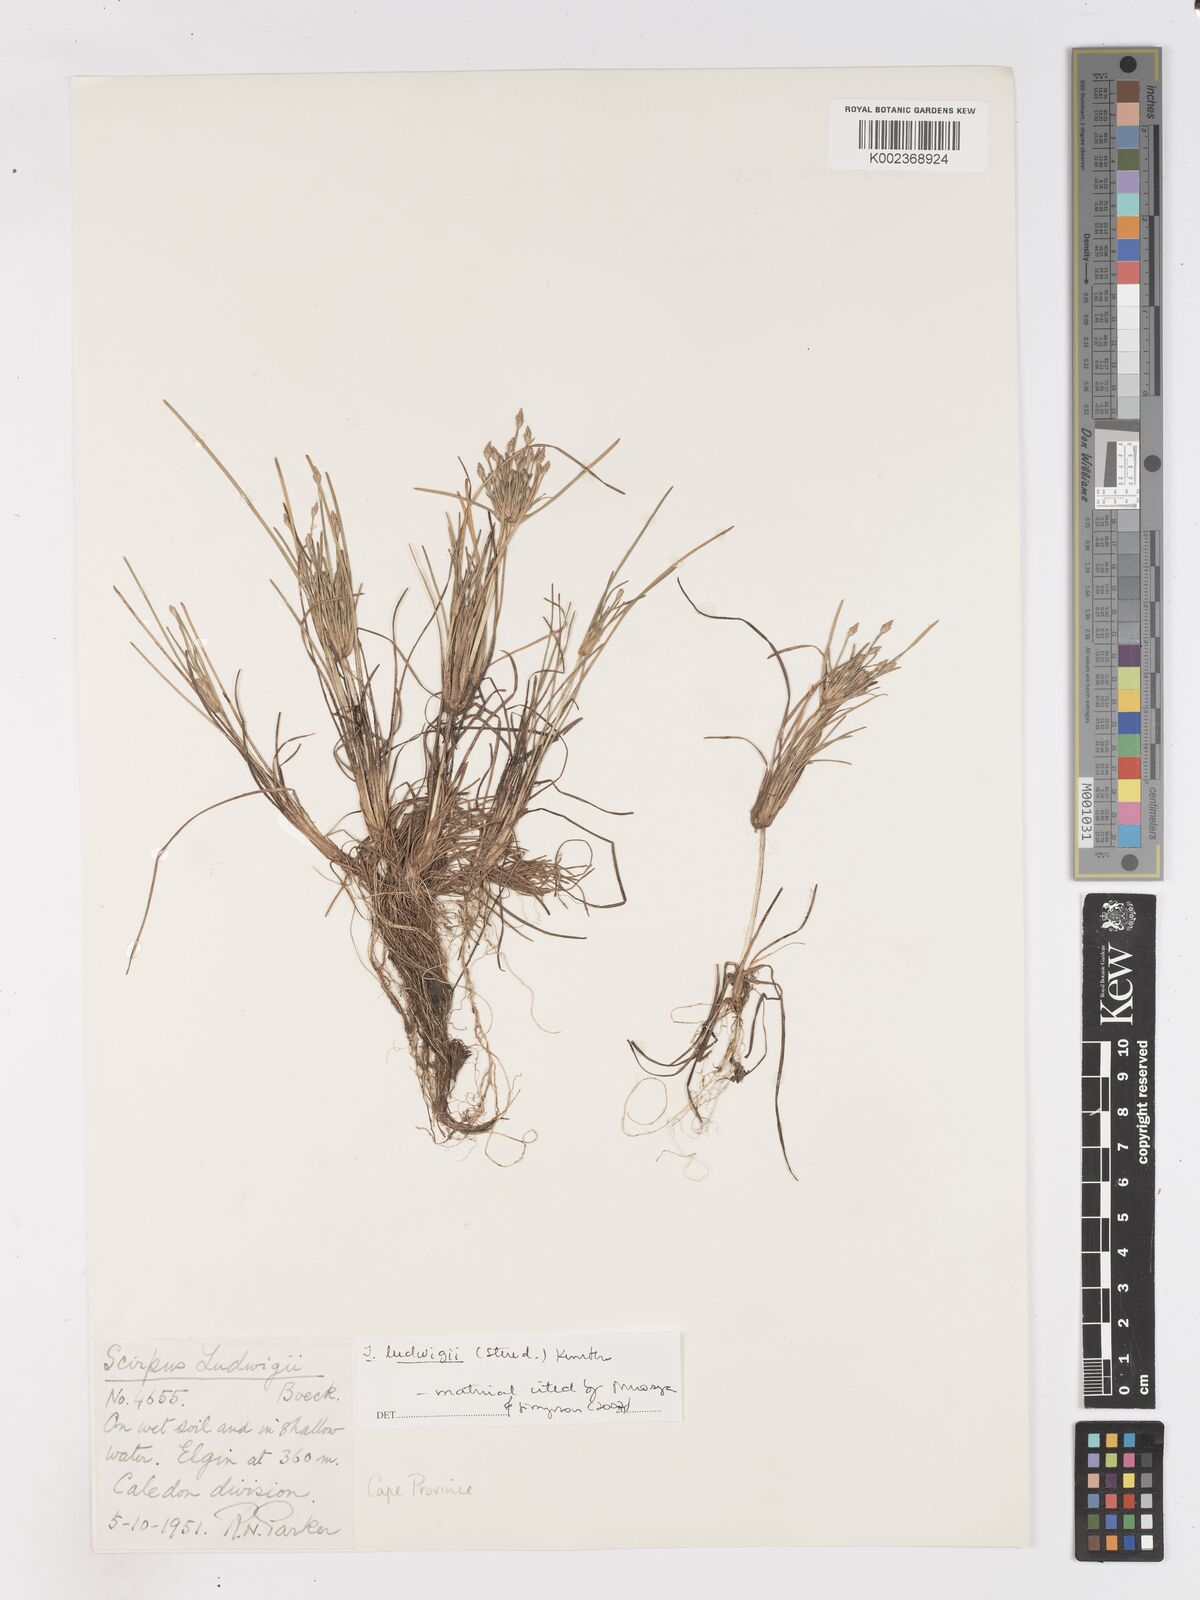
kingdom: Plantae
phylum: Tracheophyta
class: Liliopsida
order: Poales
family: Cyperaceae
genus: Isolepis
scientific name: Isolepis ludwigii
